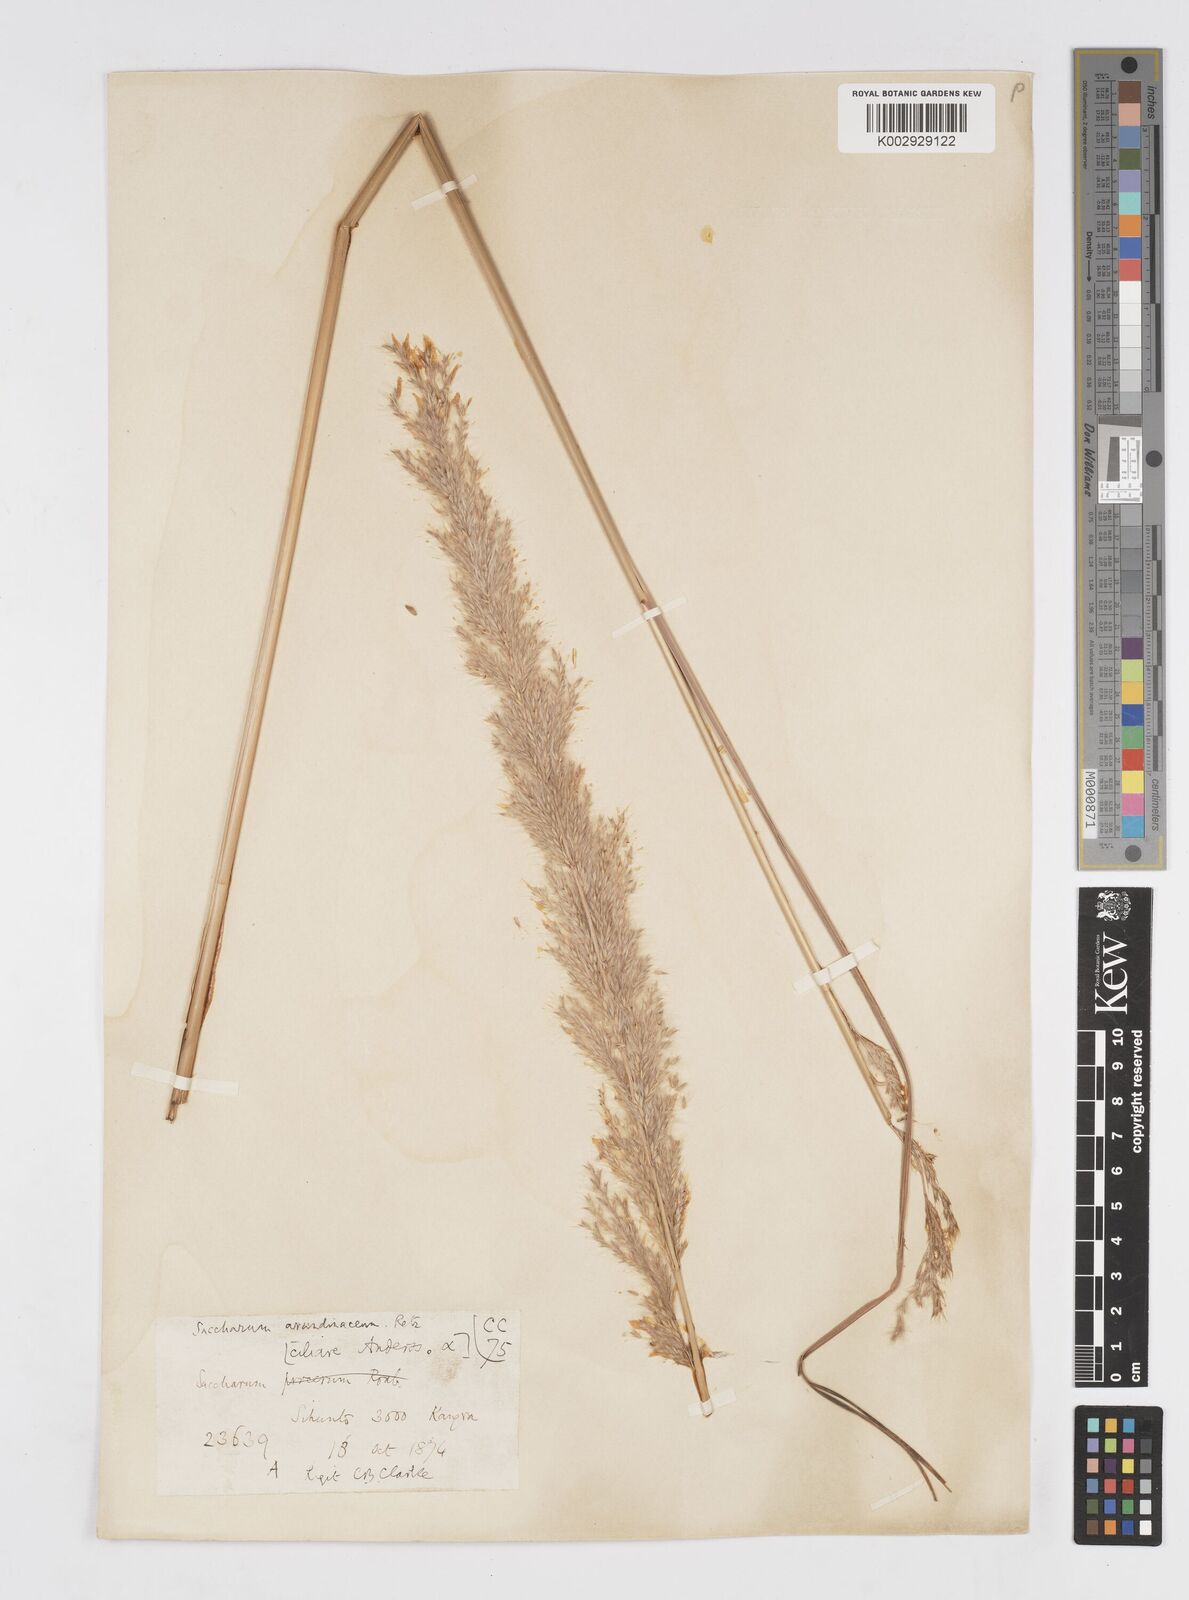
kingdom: Plantae
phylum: Tracheophyta
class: Liliopsida
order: Poales
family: Poaceae
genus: Tripidium
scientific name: Tripidium bengalense
